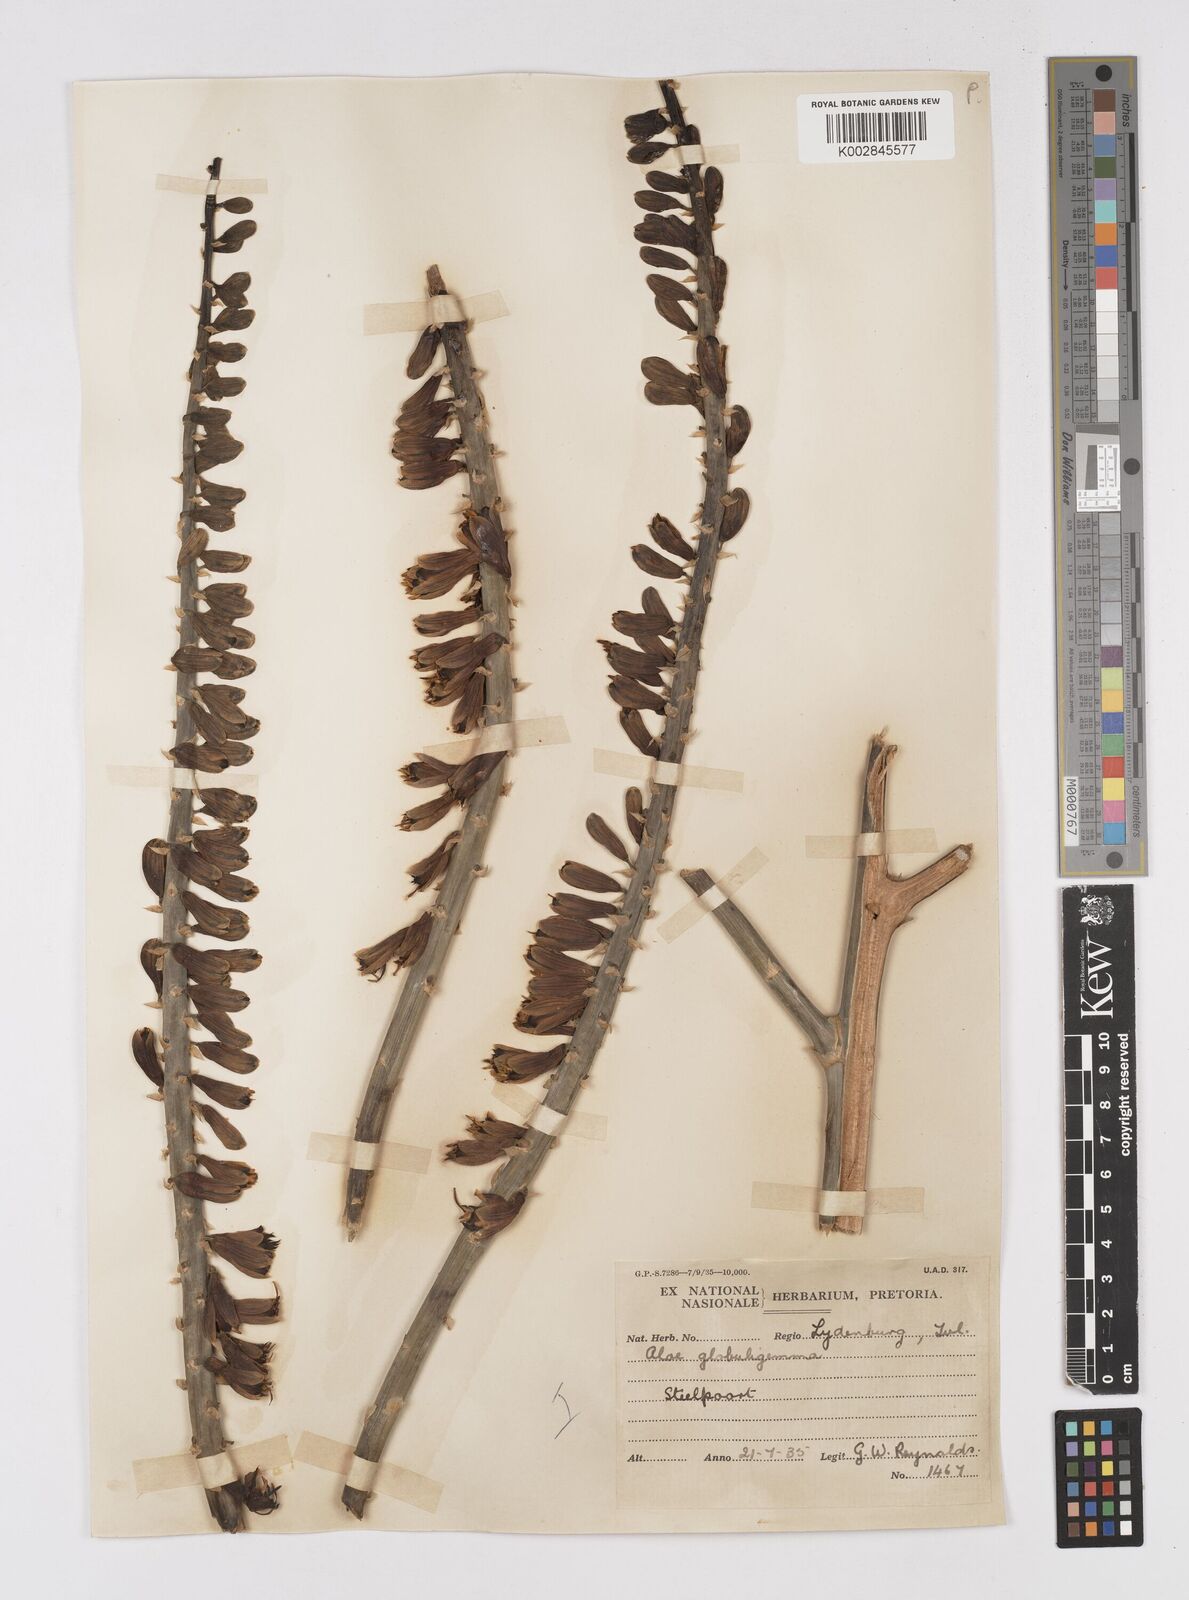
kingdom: Plantae
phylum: Tracheophyta
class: Liliopsida
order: Asparagales
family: Asphodelaceae
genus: Aloe
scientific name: Aloe globuligemma
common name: Witchdoctor's aloe
